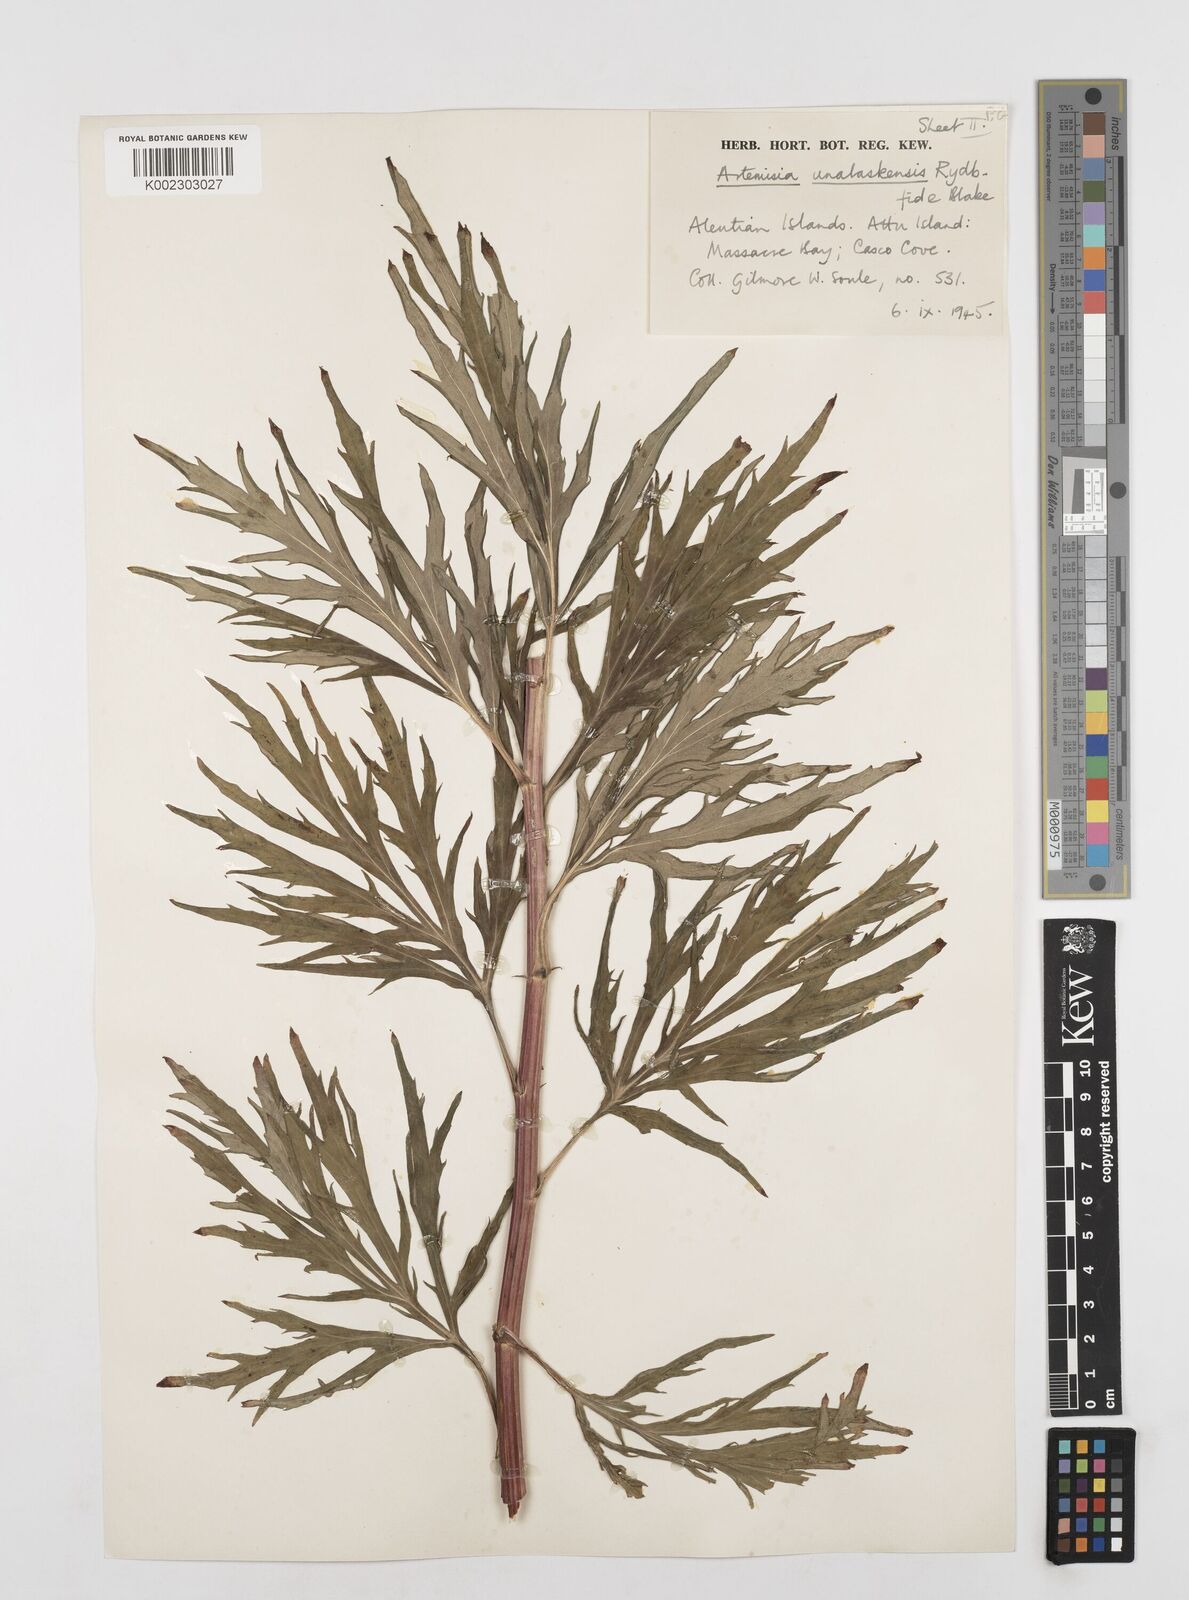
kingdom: Plantae
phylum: Tracheophyta
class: Magnoliopsida
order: Asterales
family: Asteraceae
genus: Artemisia
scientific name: Artemisia tilesii
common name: Aleutian mugwort
